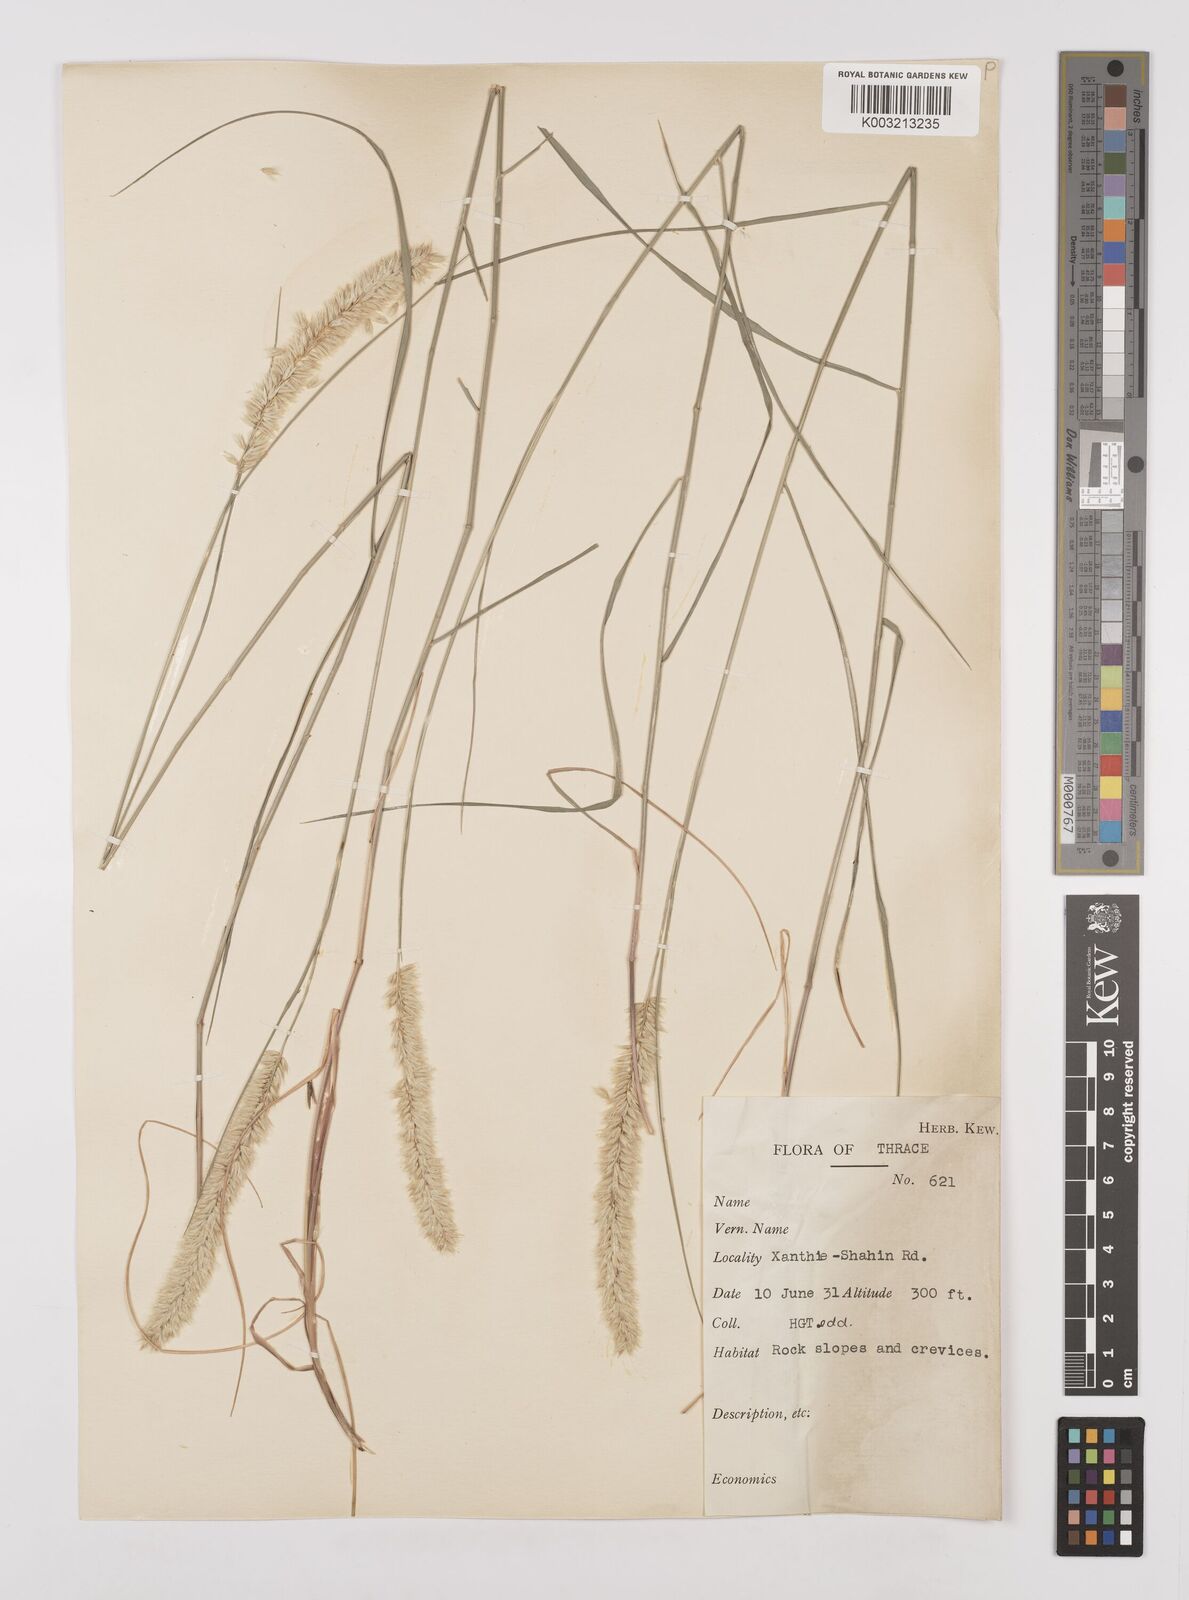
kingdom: Plantae
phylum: Tracheophyta
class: Liliopsida
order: Poales
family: Poaceae
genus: Melica
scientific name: Melica ciliata
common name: Hairy melicgrass
